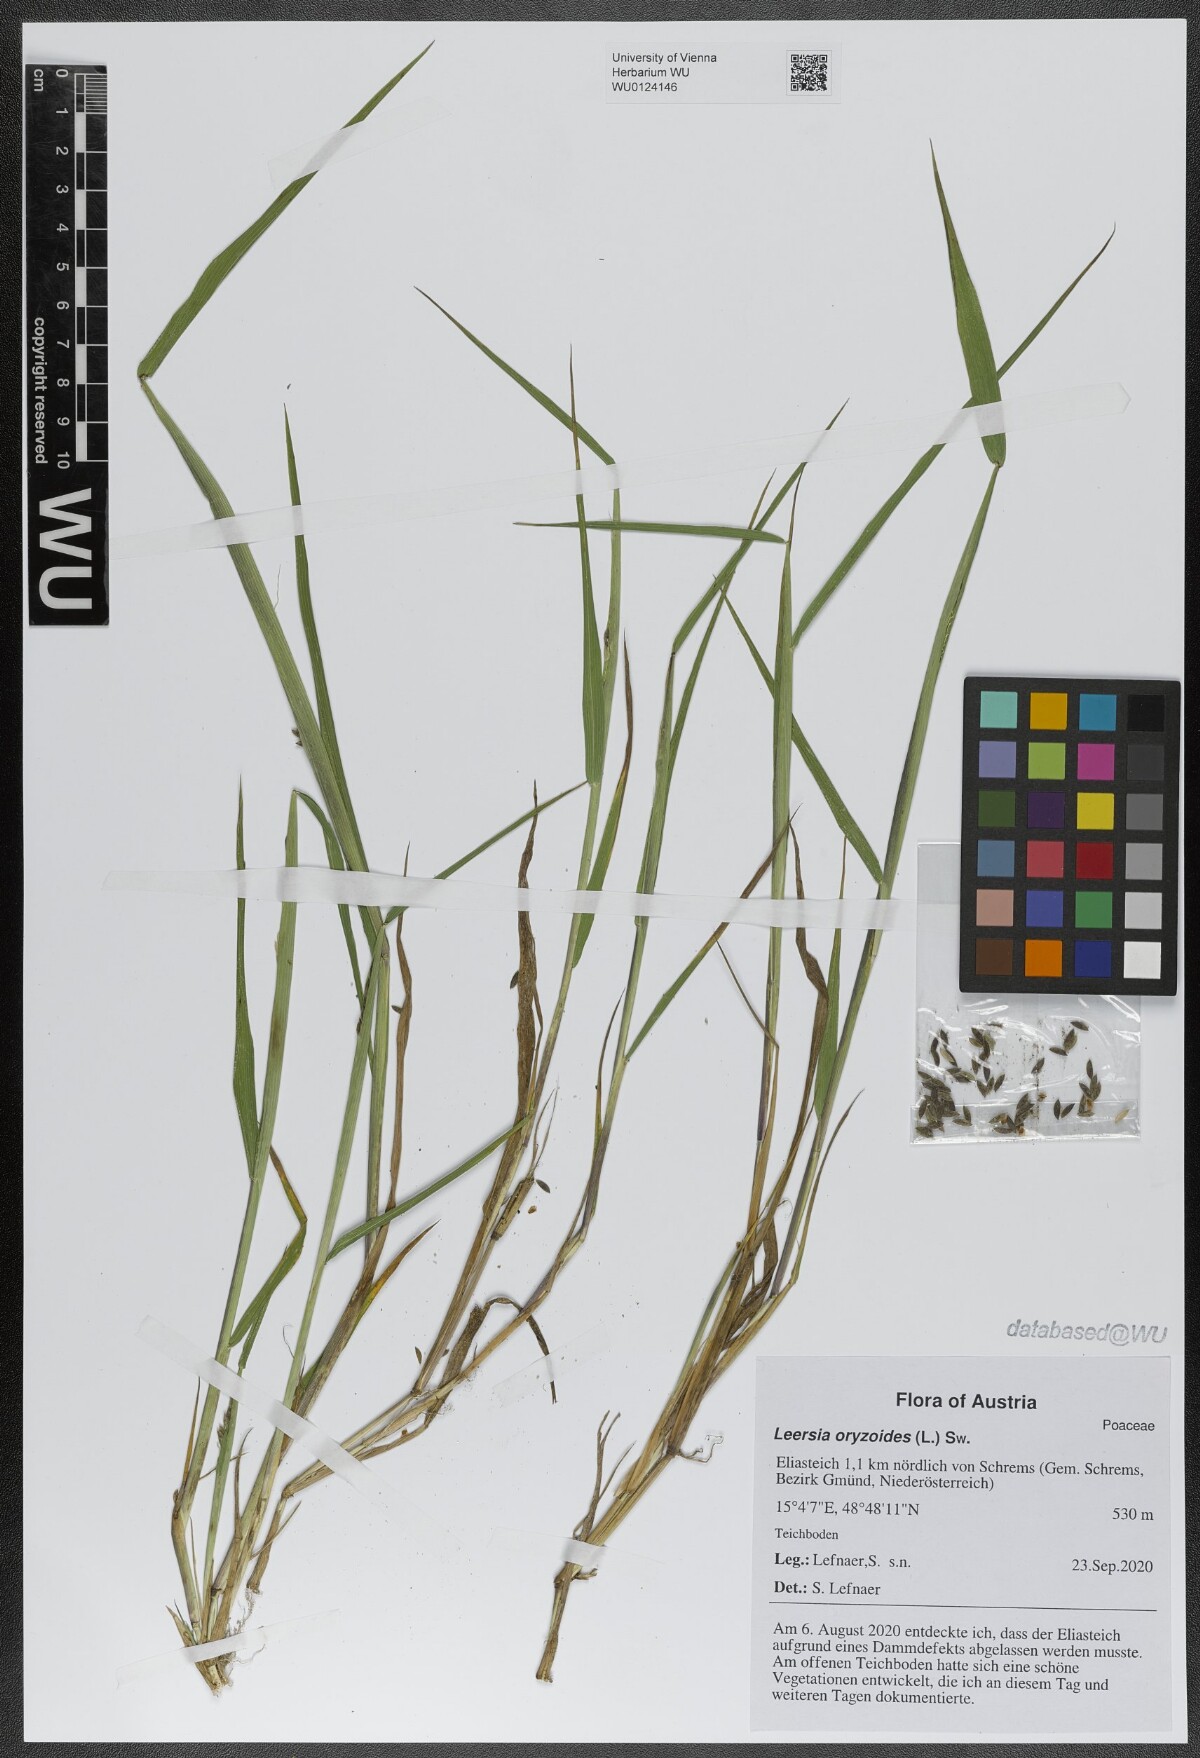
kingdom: Plantae
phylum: Tracheophyta
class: Liliopsida
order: Poales
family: Poaceae
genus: Leersia
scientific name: Leersia oryzoides
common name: Cut-grass
